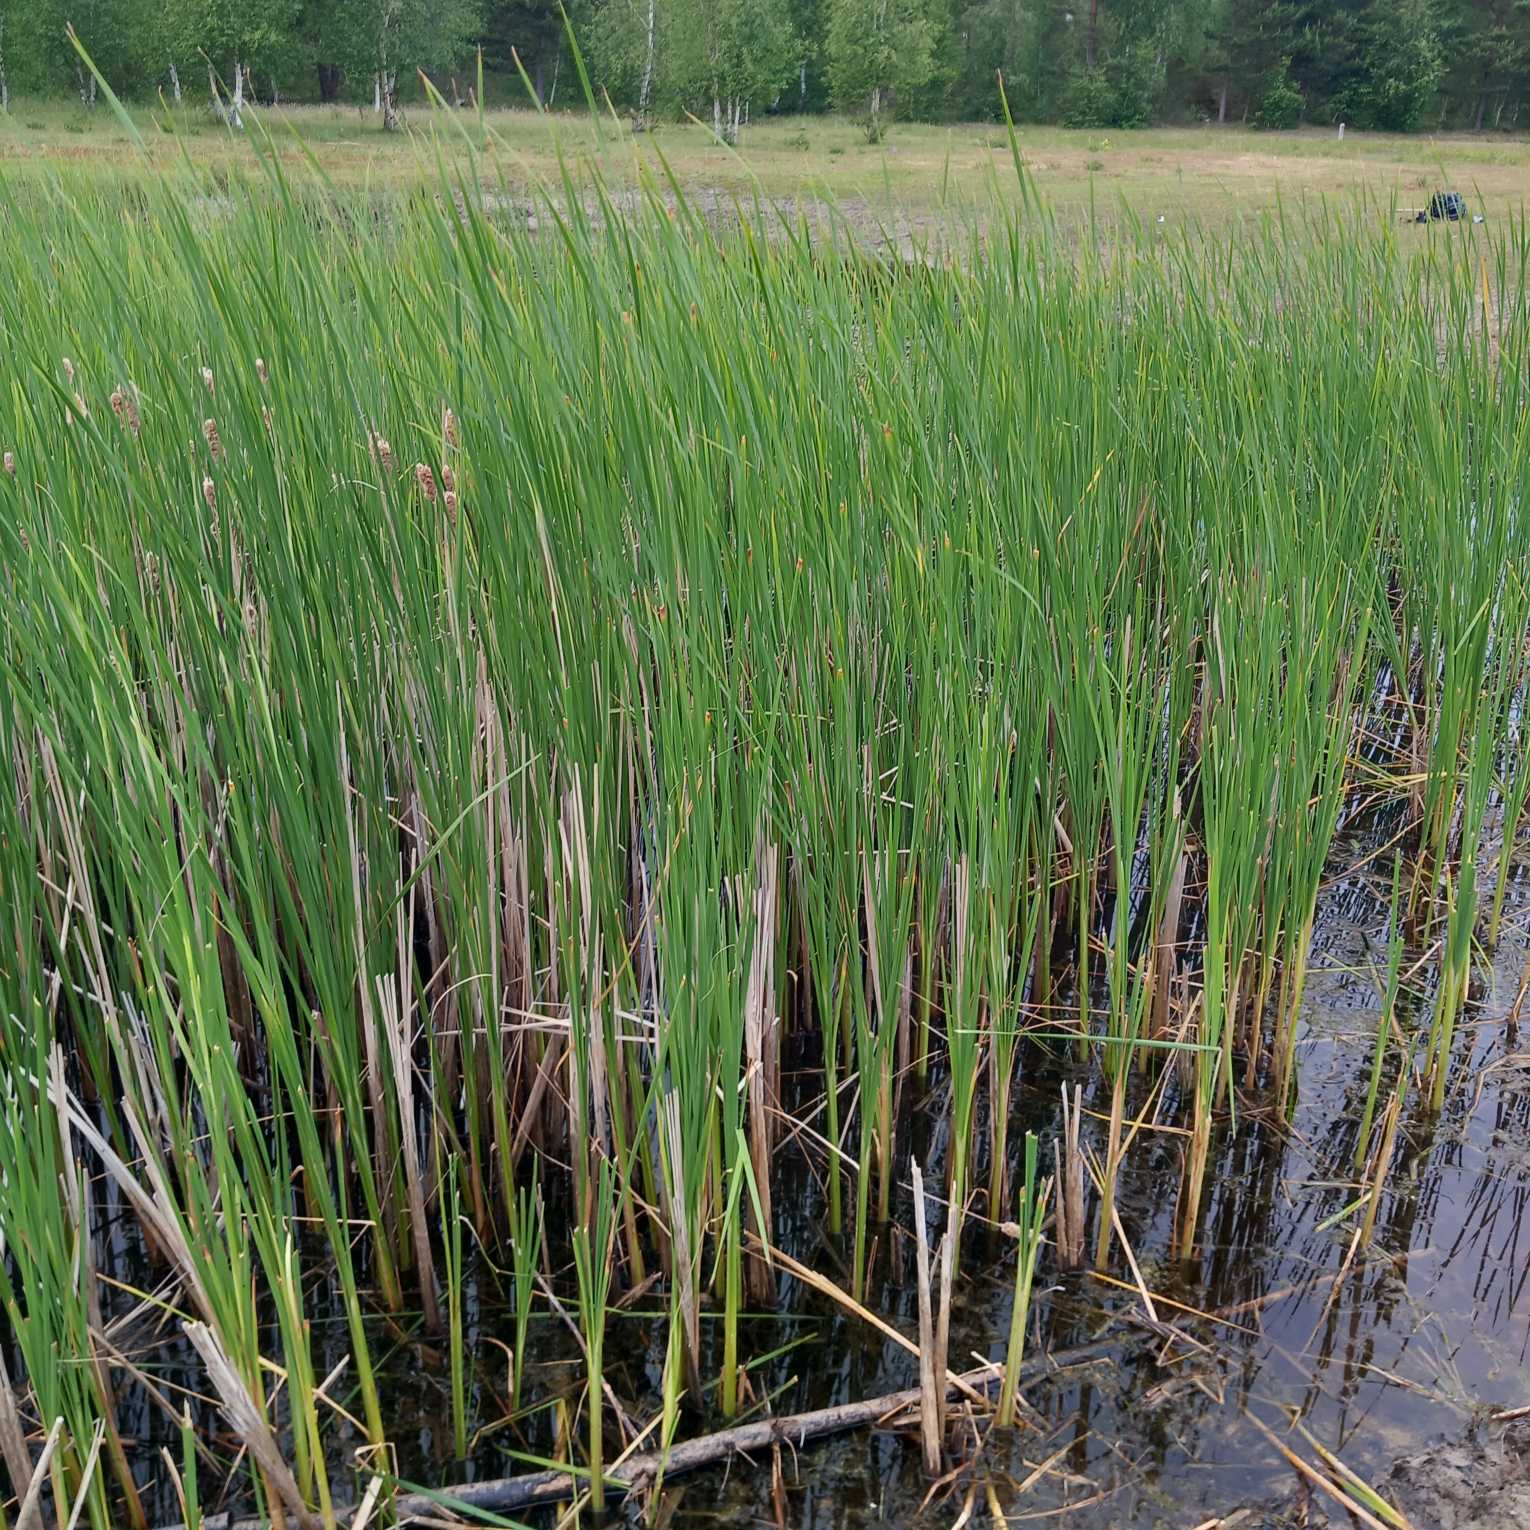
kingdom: Plantae
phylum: Tracheophyta
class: Liliopsida
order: Poales
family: Typhaceae
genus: Typha
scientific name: Typha angustifolia
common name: Smalbladet dunhammer
